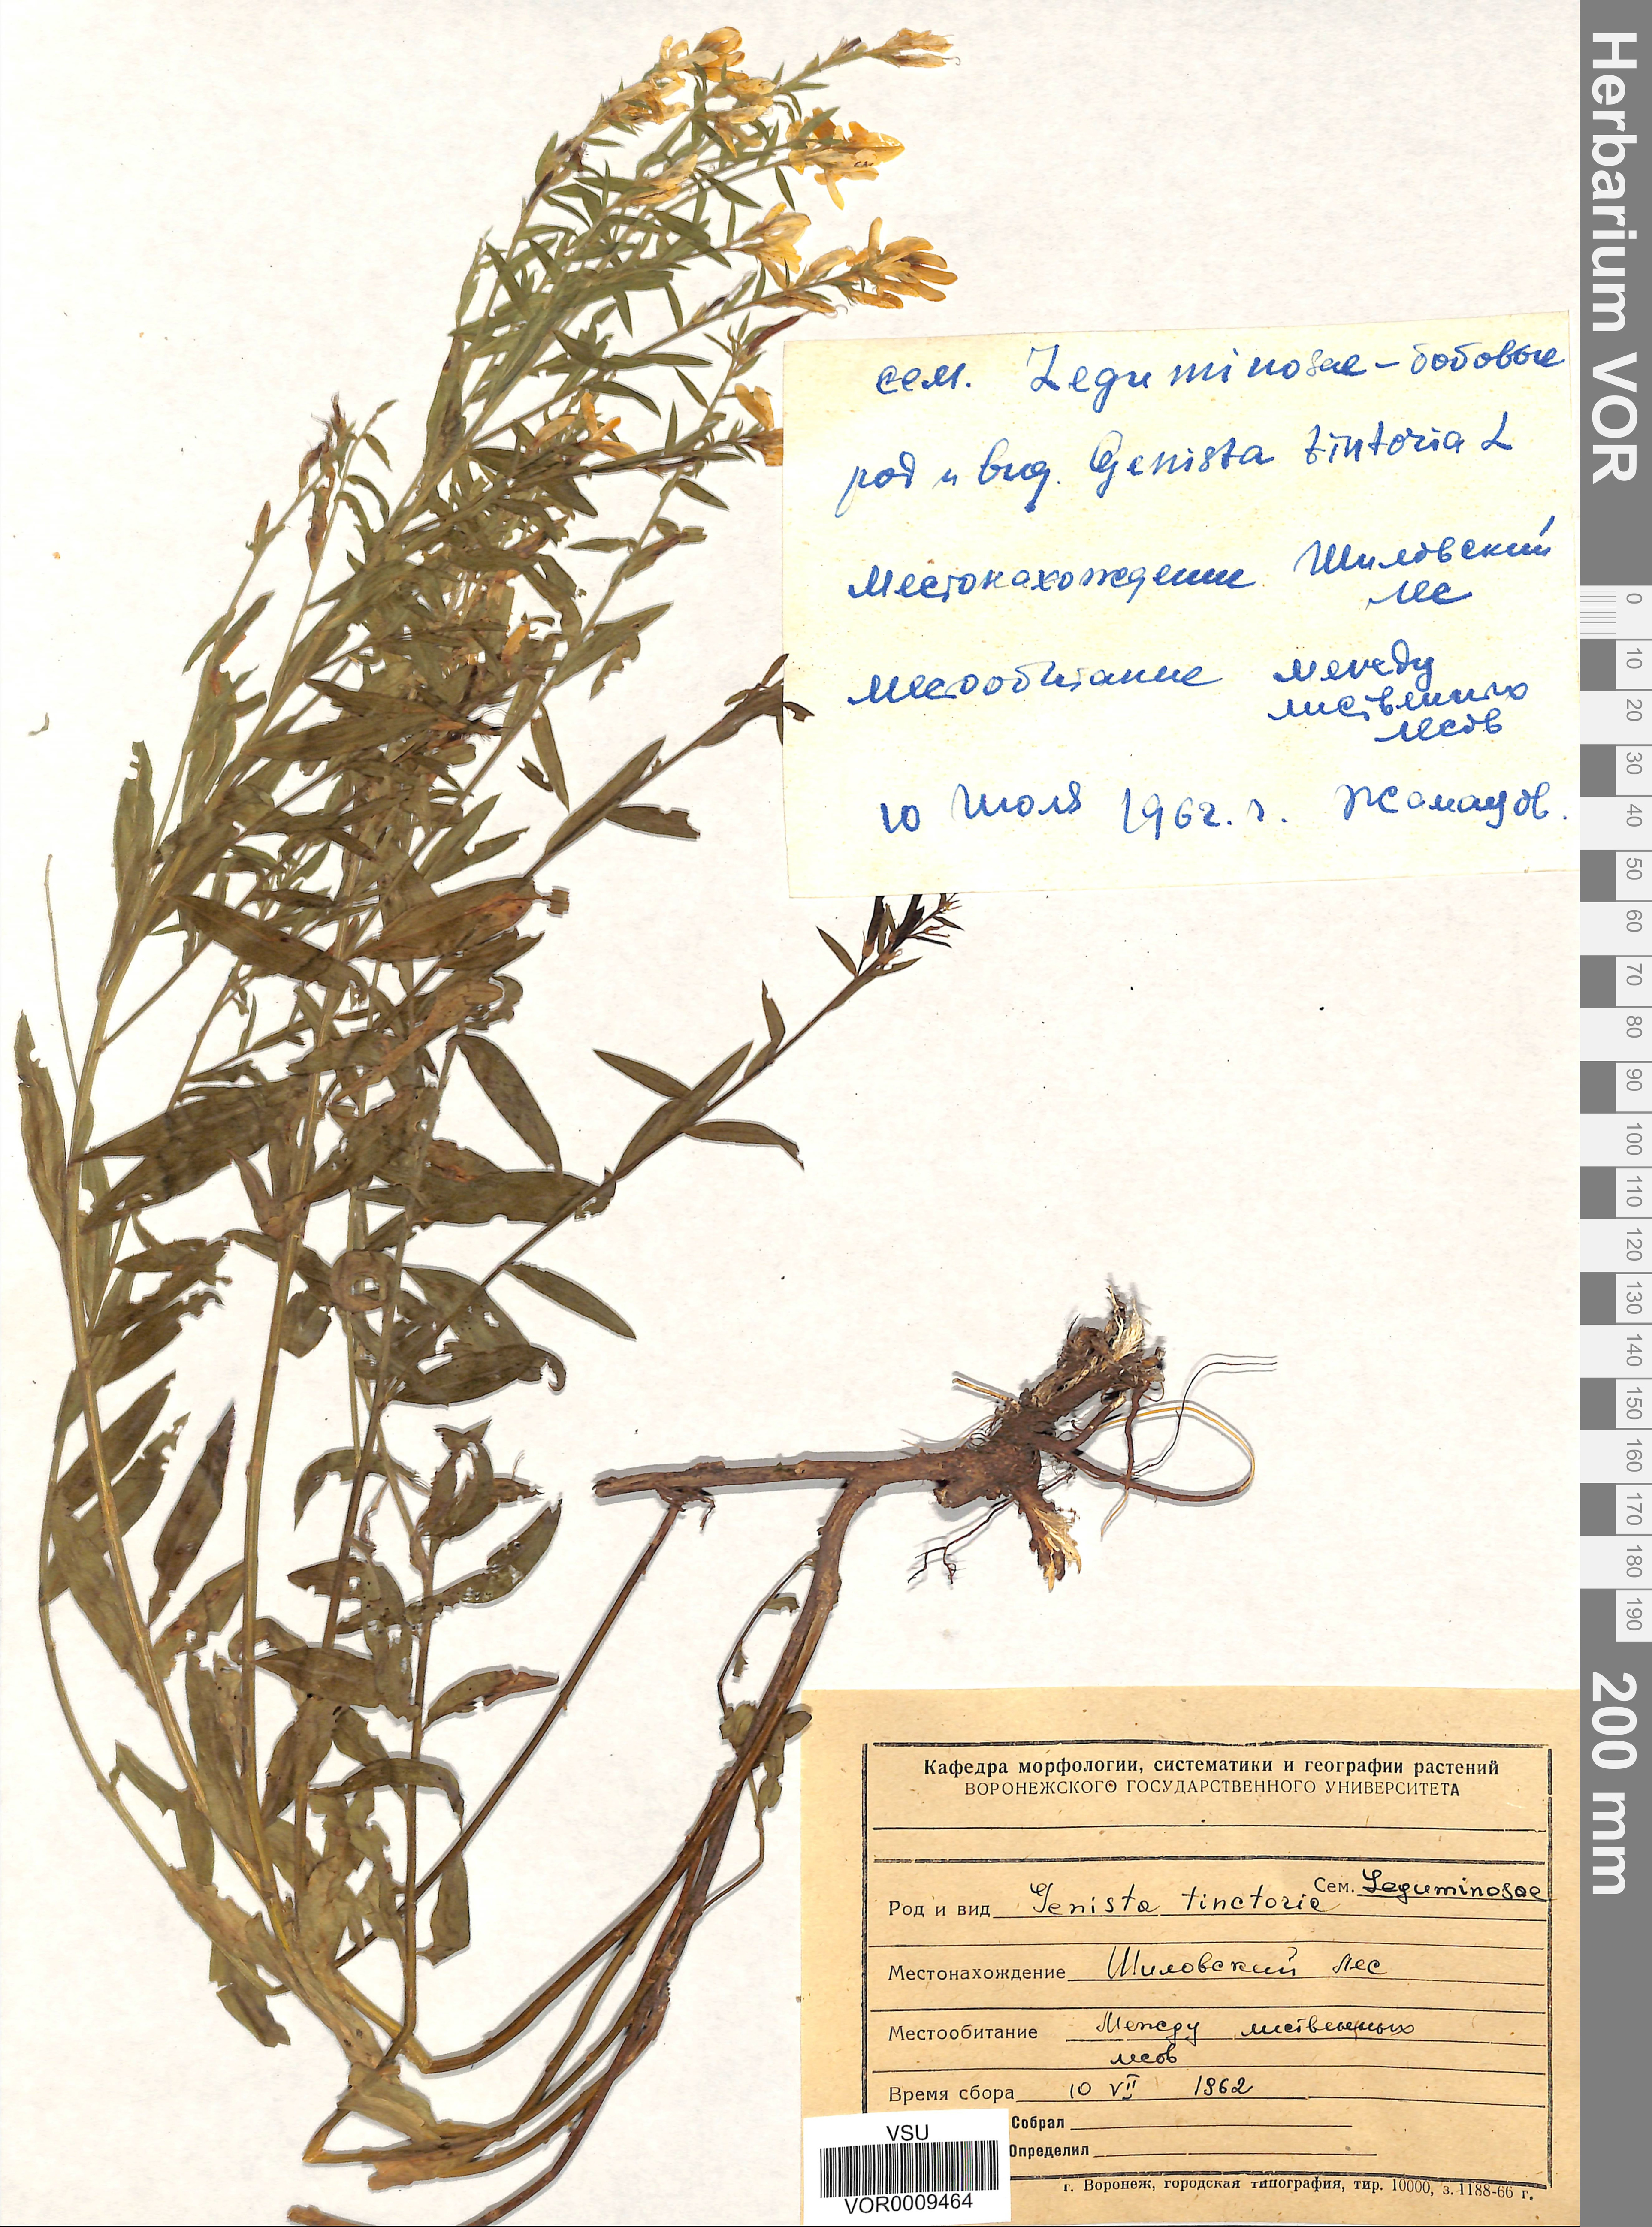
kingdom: Plantae
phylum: Tracheophyta
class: Magnoliopsida
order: Fabales
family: Fabaceae
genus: Genista
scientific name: Genista tinctoria
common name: Dyer's greenweed
